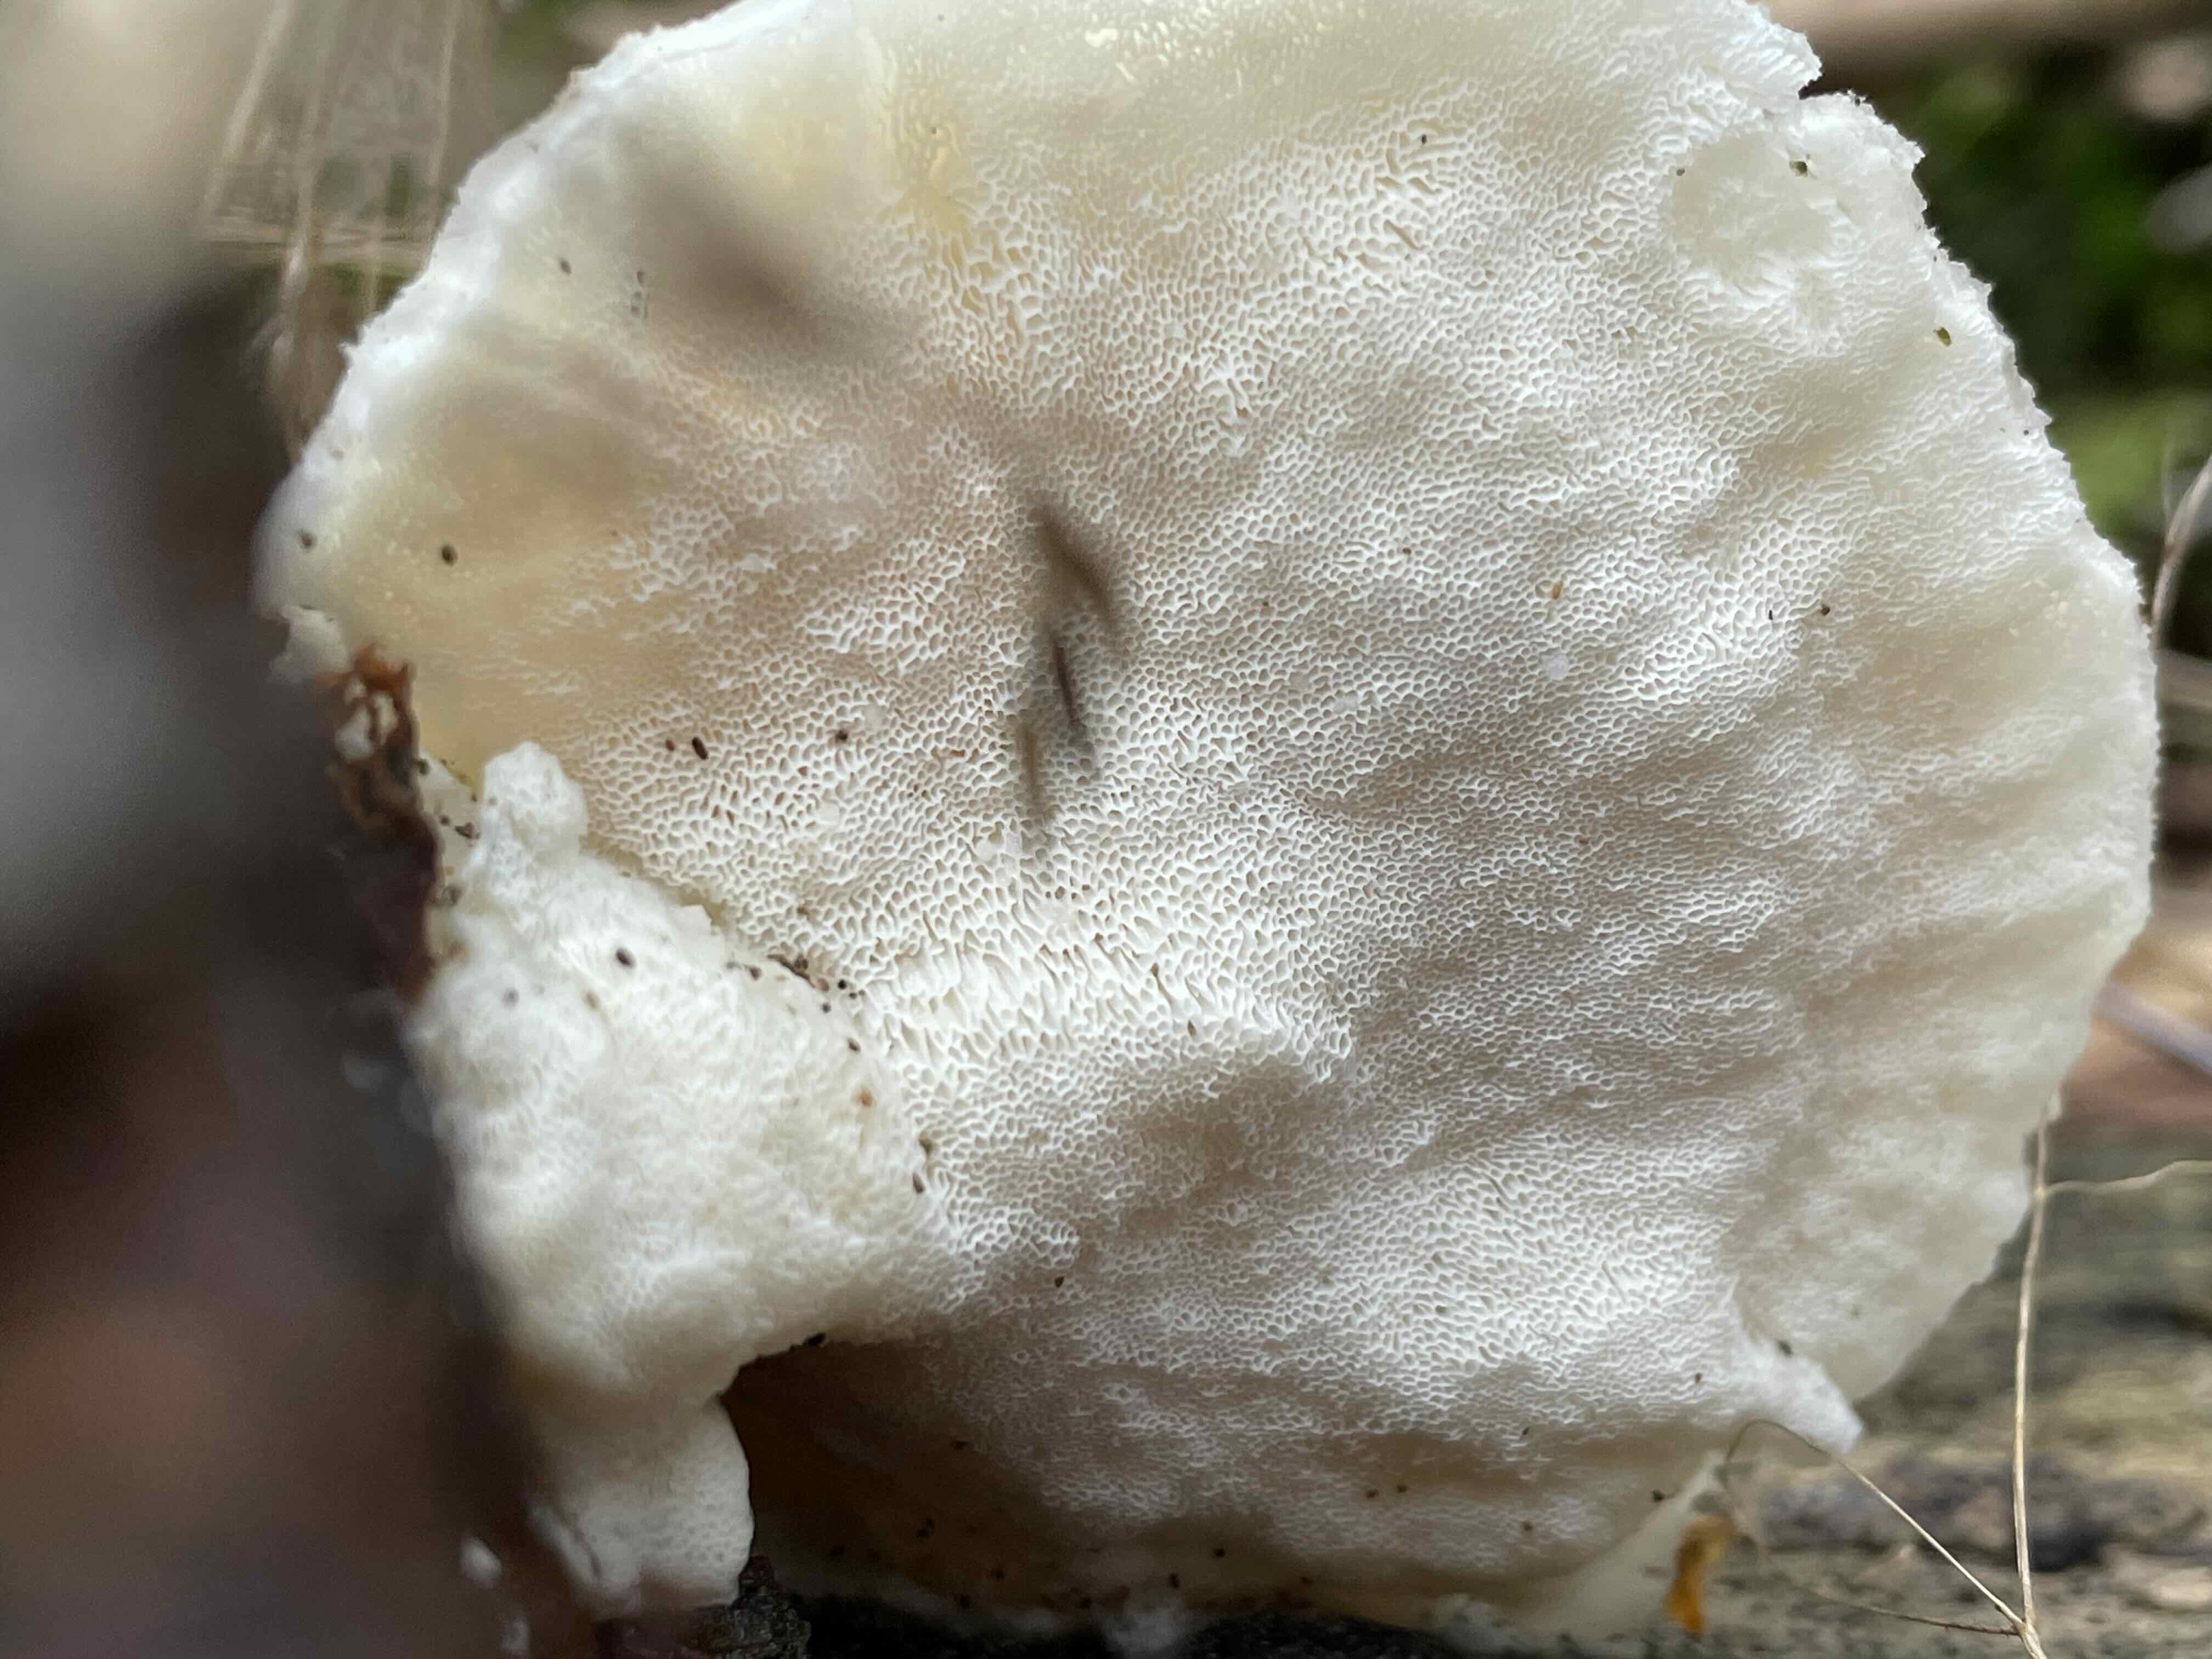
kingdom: Fungi
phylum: Basidiomycota
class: Agaricomycetes
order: Polyporales
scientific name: Polyporales
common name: poresvampordenen
